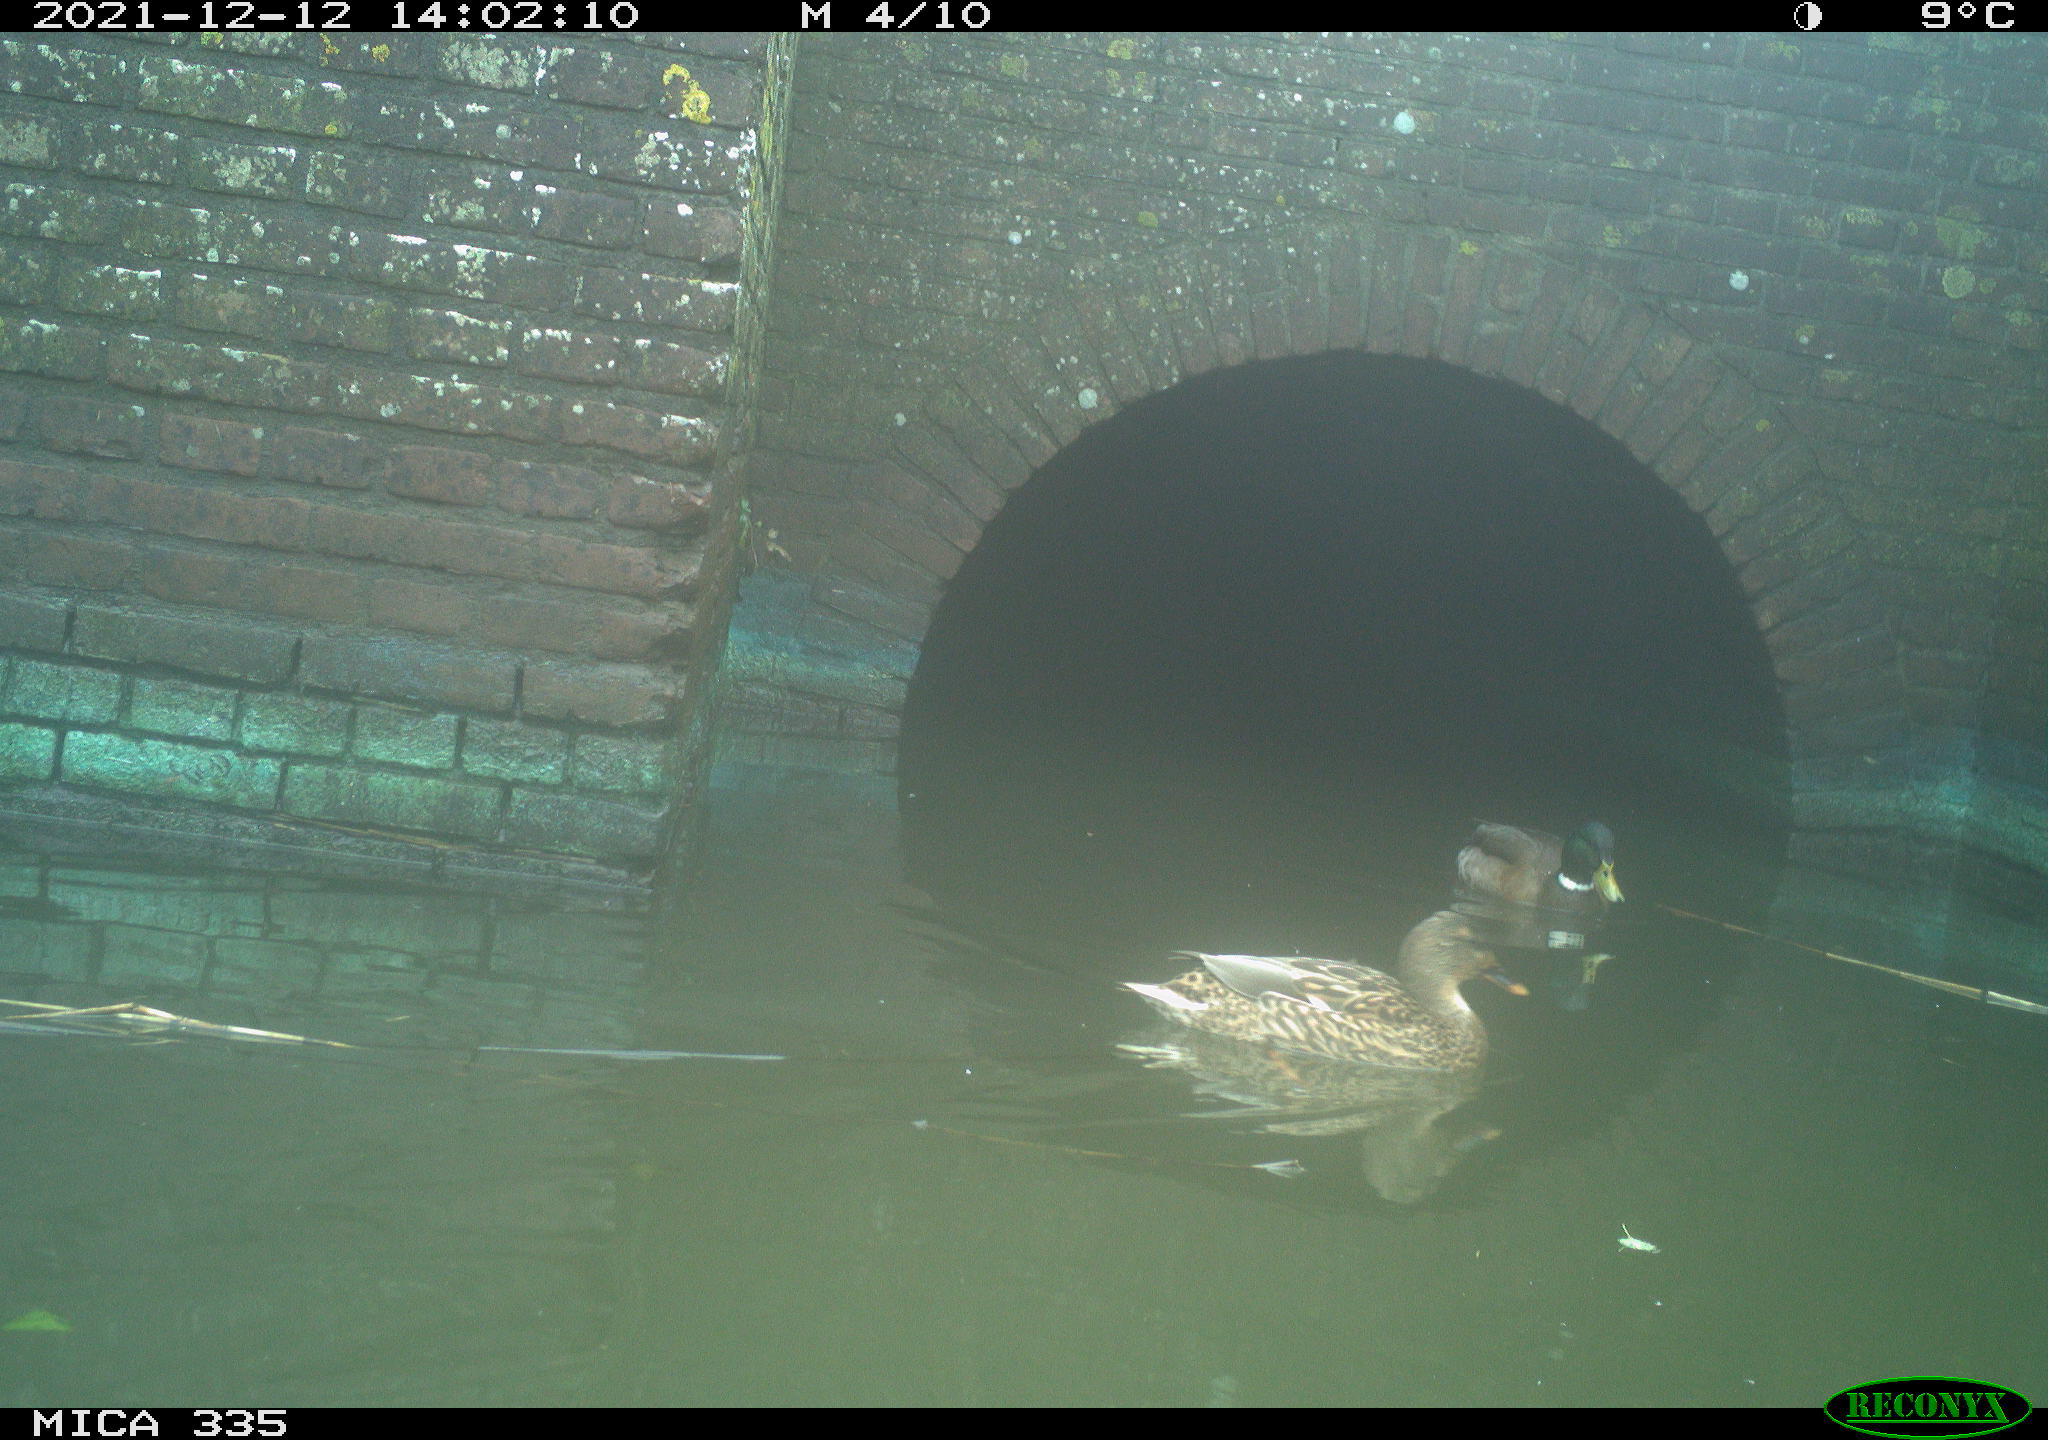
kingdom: Animalia
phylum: Chordata
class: Aves
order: Anseriformes
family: Anatidae
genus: Anas
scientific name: Anas platyrhynchos
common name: Mallard
